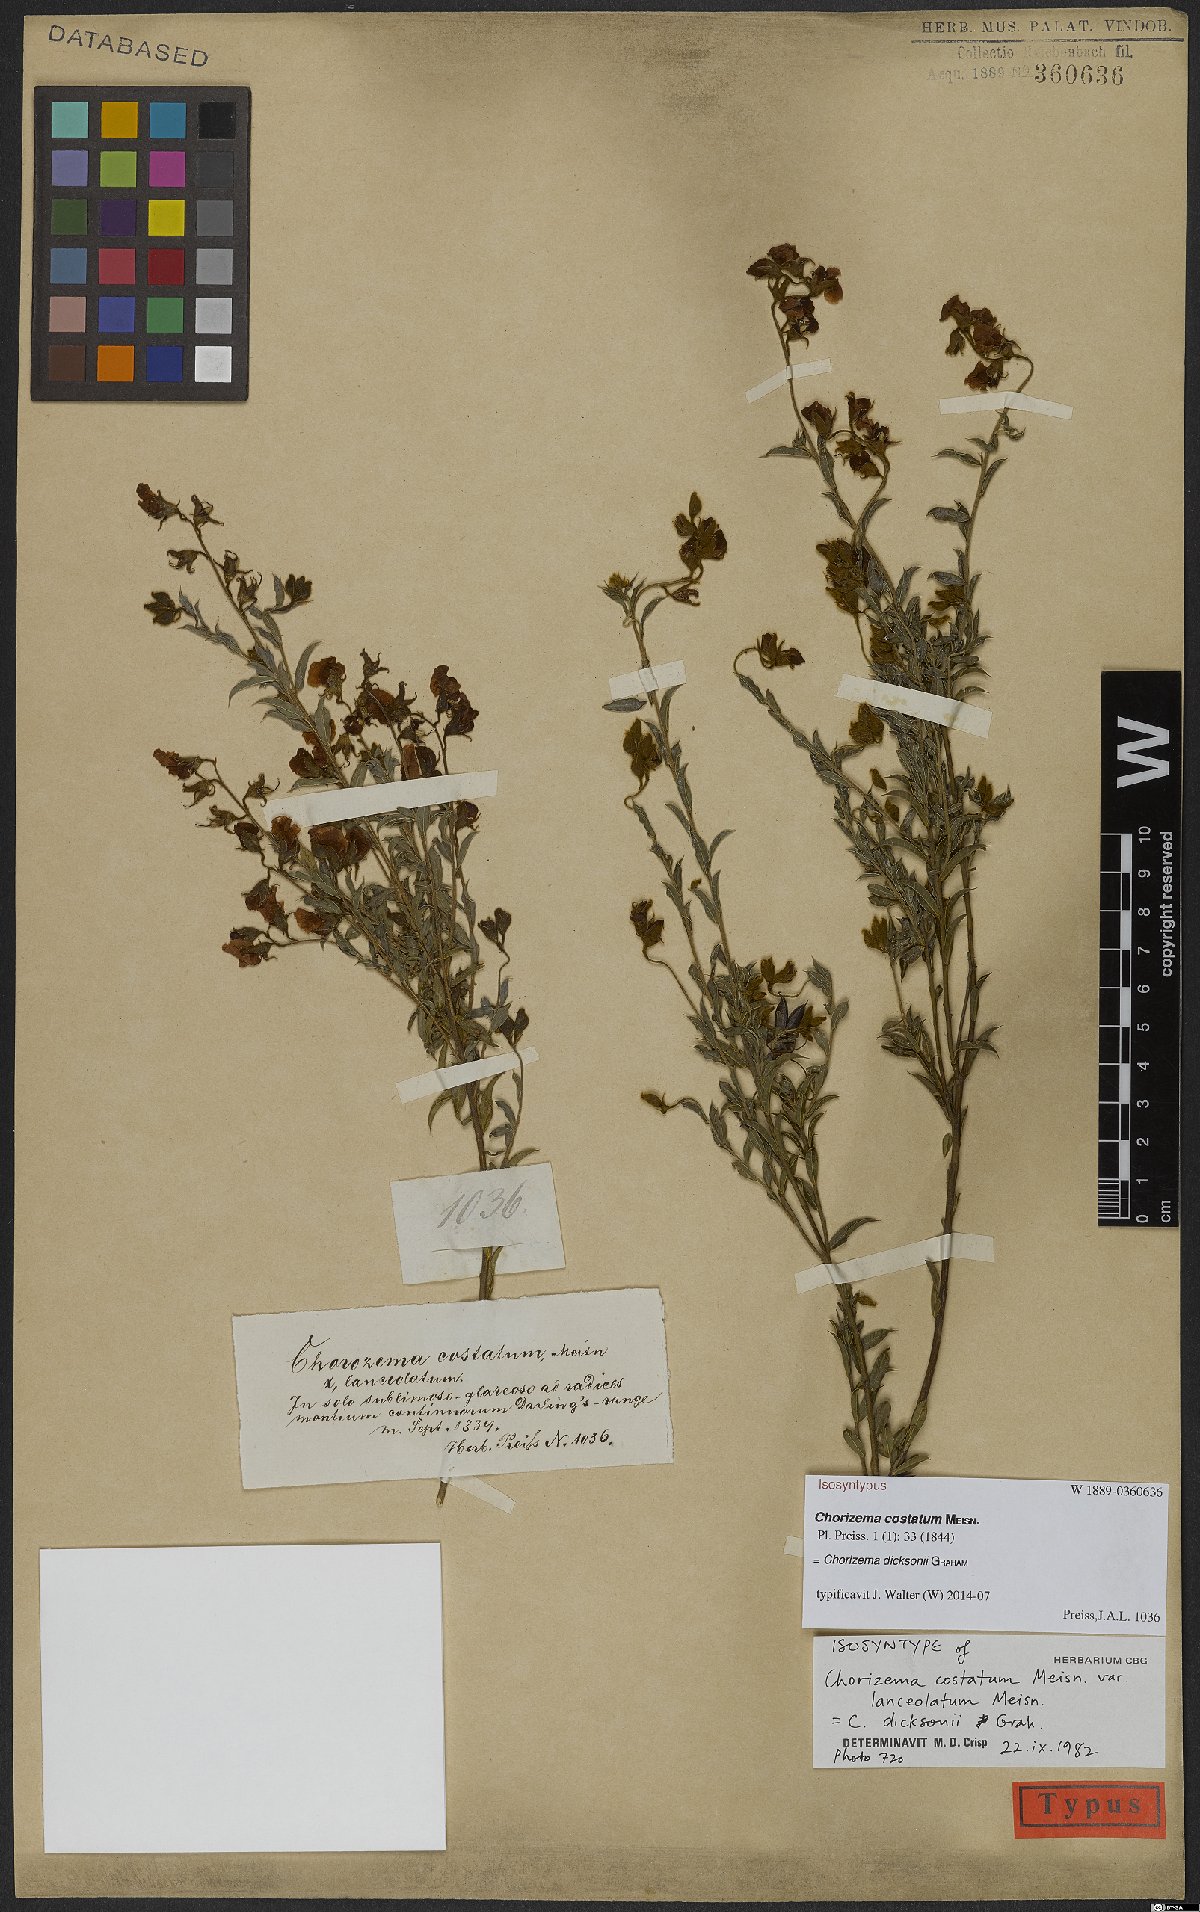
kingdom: Plantae
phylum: Tracheophyta
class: Magnoliopsida
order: Fabales
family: Fabaceae
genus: Chorizema
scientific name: Chorizema dicksonii
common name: Yellow-eyed flame-pea
